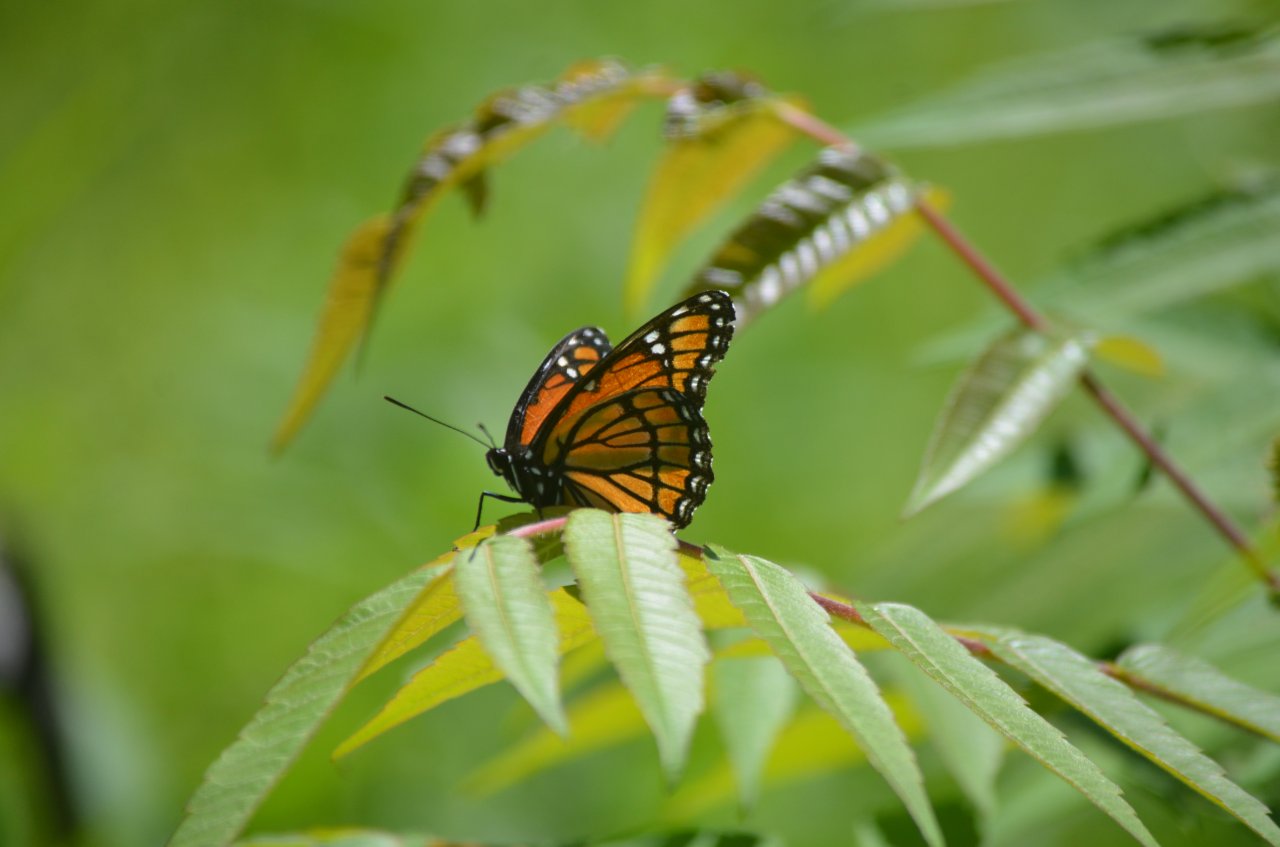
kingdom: Animalia
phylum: Arthropoda
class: Insecta
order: Lepidoptera
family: Nymphalidae
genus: Limenitis
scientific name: Limenitis archippus
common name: Viceroy
